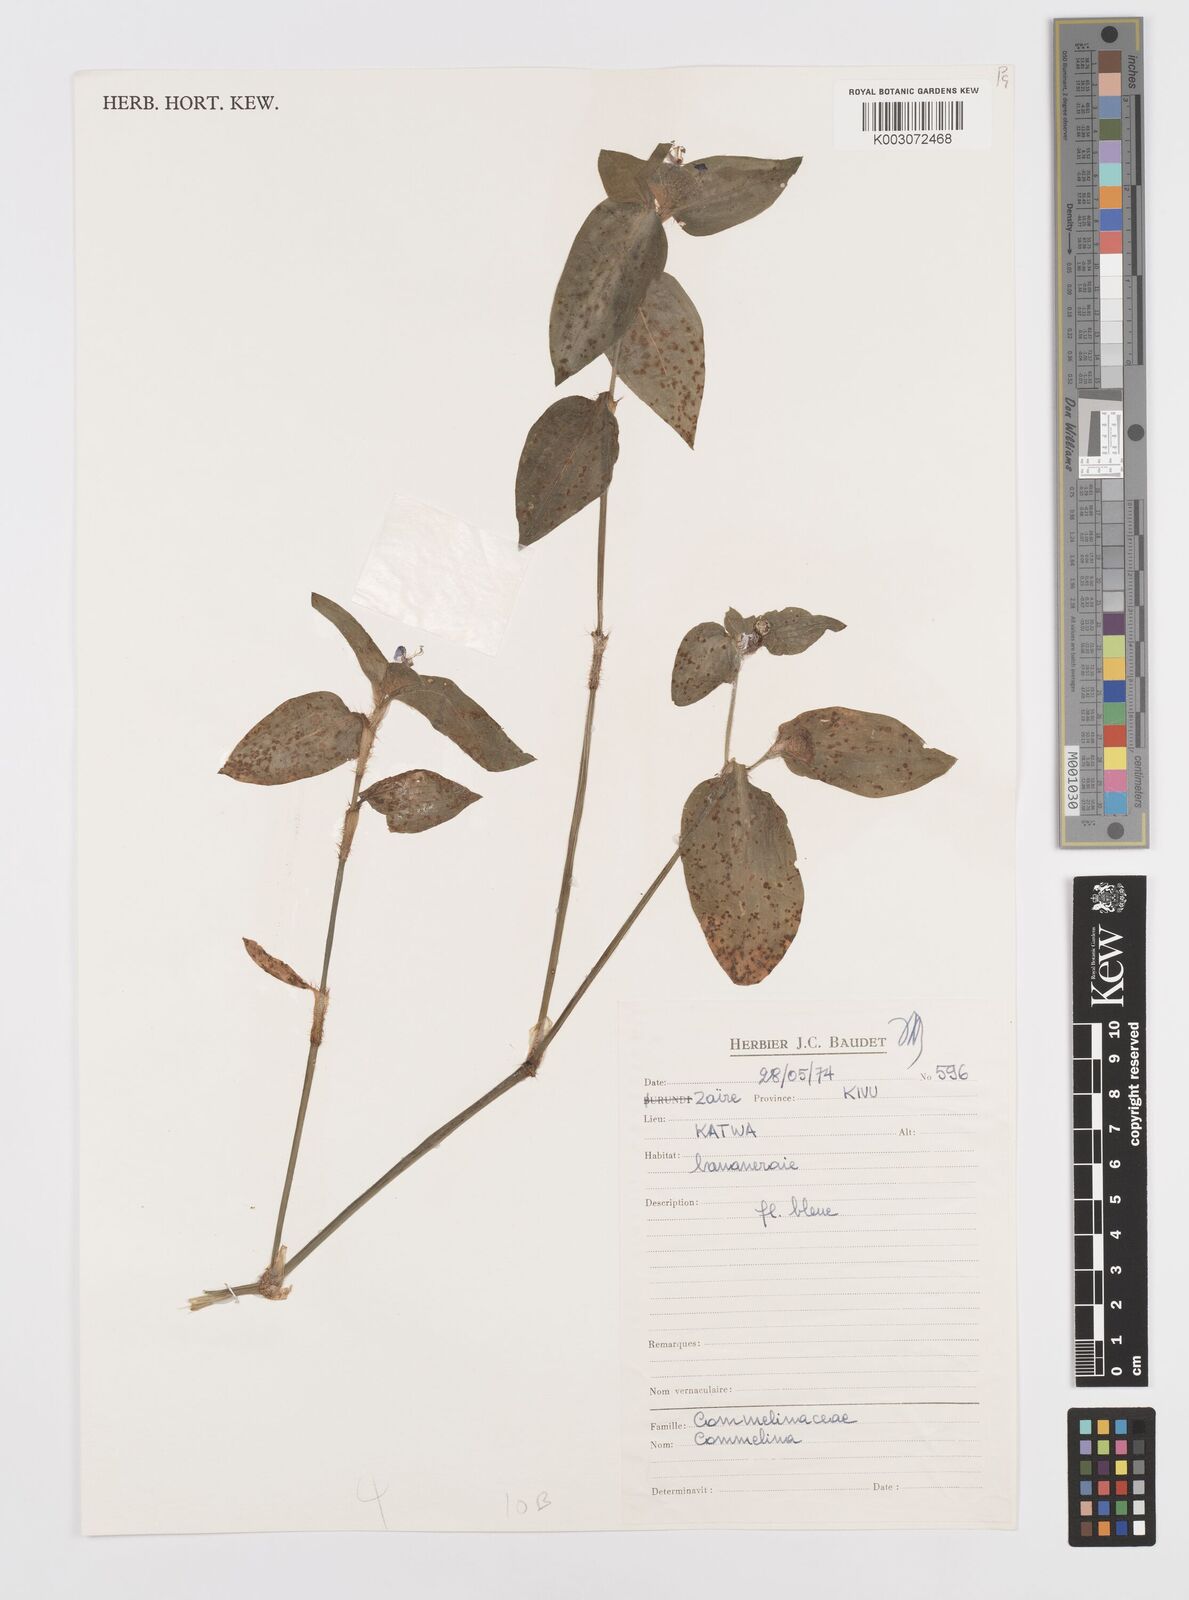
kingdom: Plantae
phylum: Tracheophyta
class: Liliopsida
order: Commelinales
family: Commelinaceae
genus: Commelina
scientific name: Commelina
